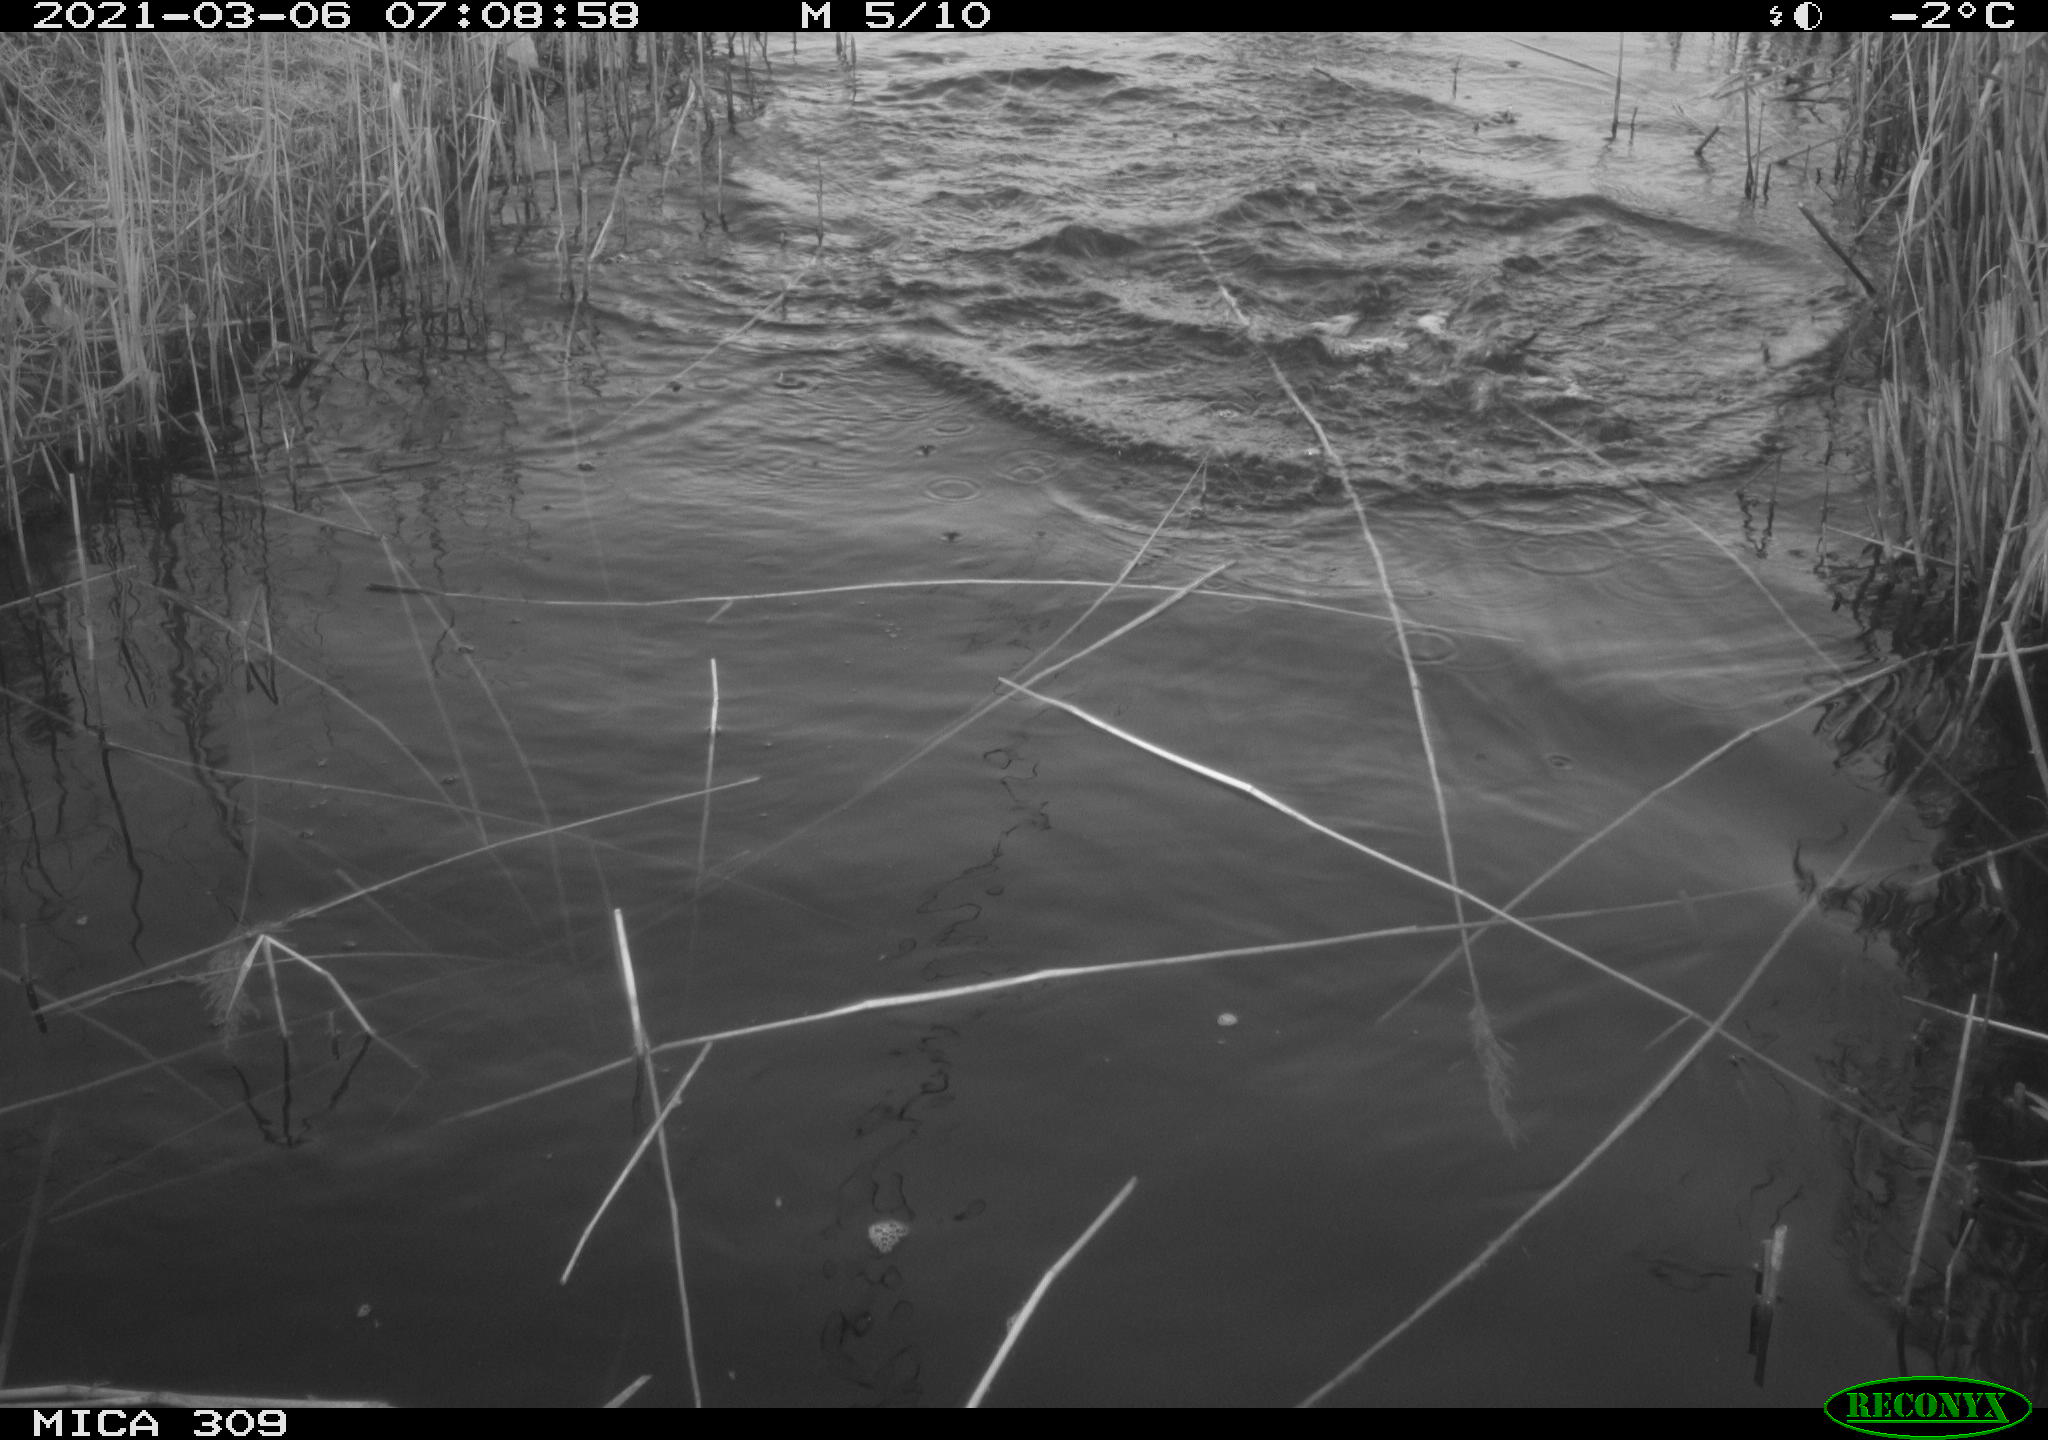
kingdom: Animalia
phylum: Chordata
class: Aves
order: Anseriformes
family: Anatidae
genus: Anas
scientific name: Anas platyrhynchos
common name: Mallard
